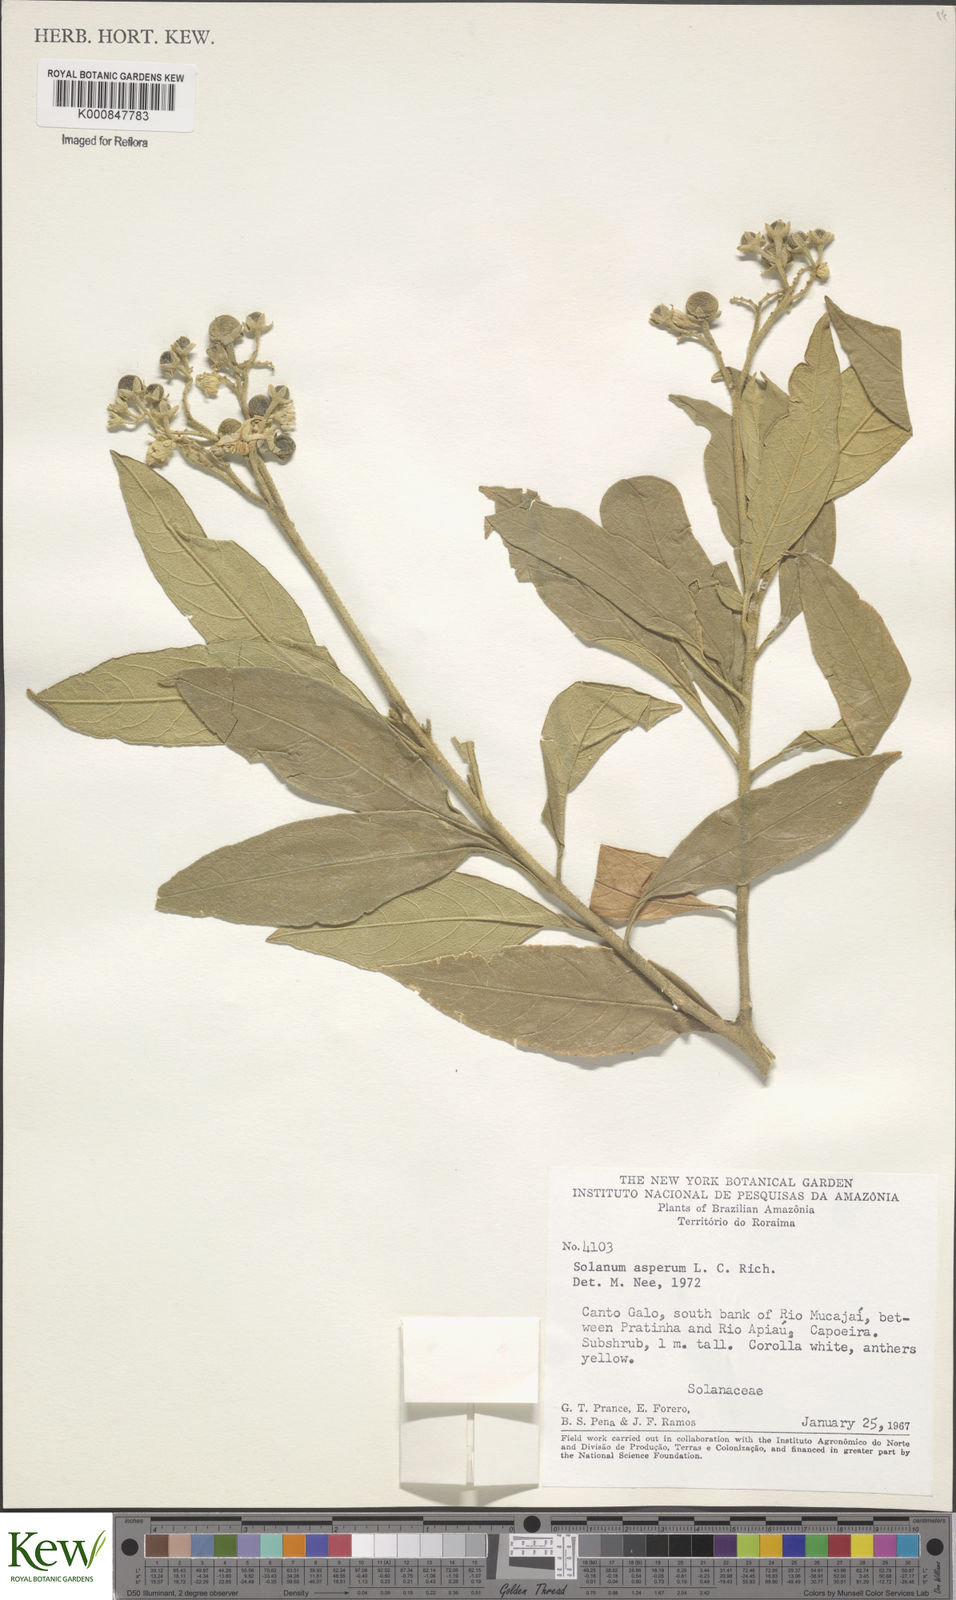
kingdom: Plantae
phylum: Tracheophyta
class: Magnoliopsida
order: Solanales
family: Solanaceae
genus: Solanum
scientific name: Solanum asperum
